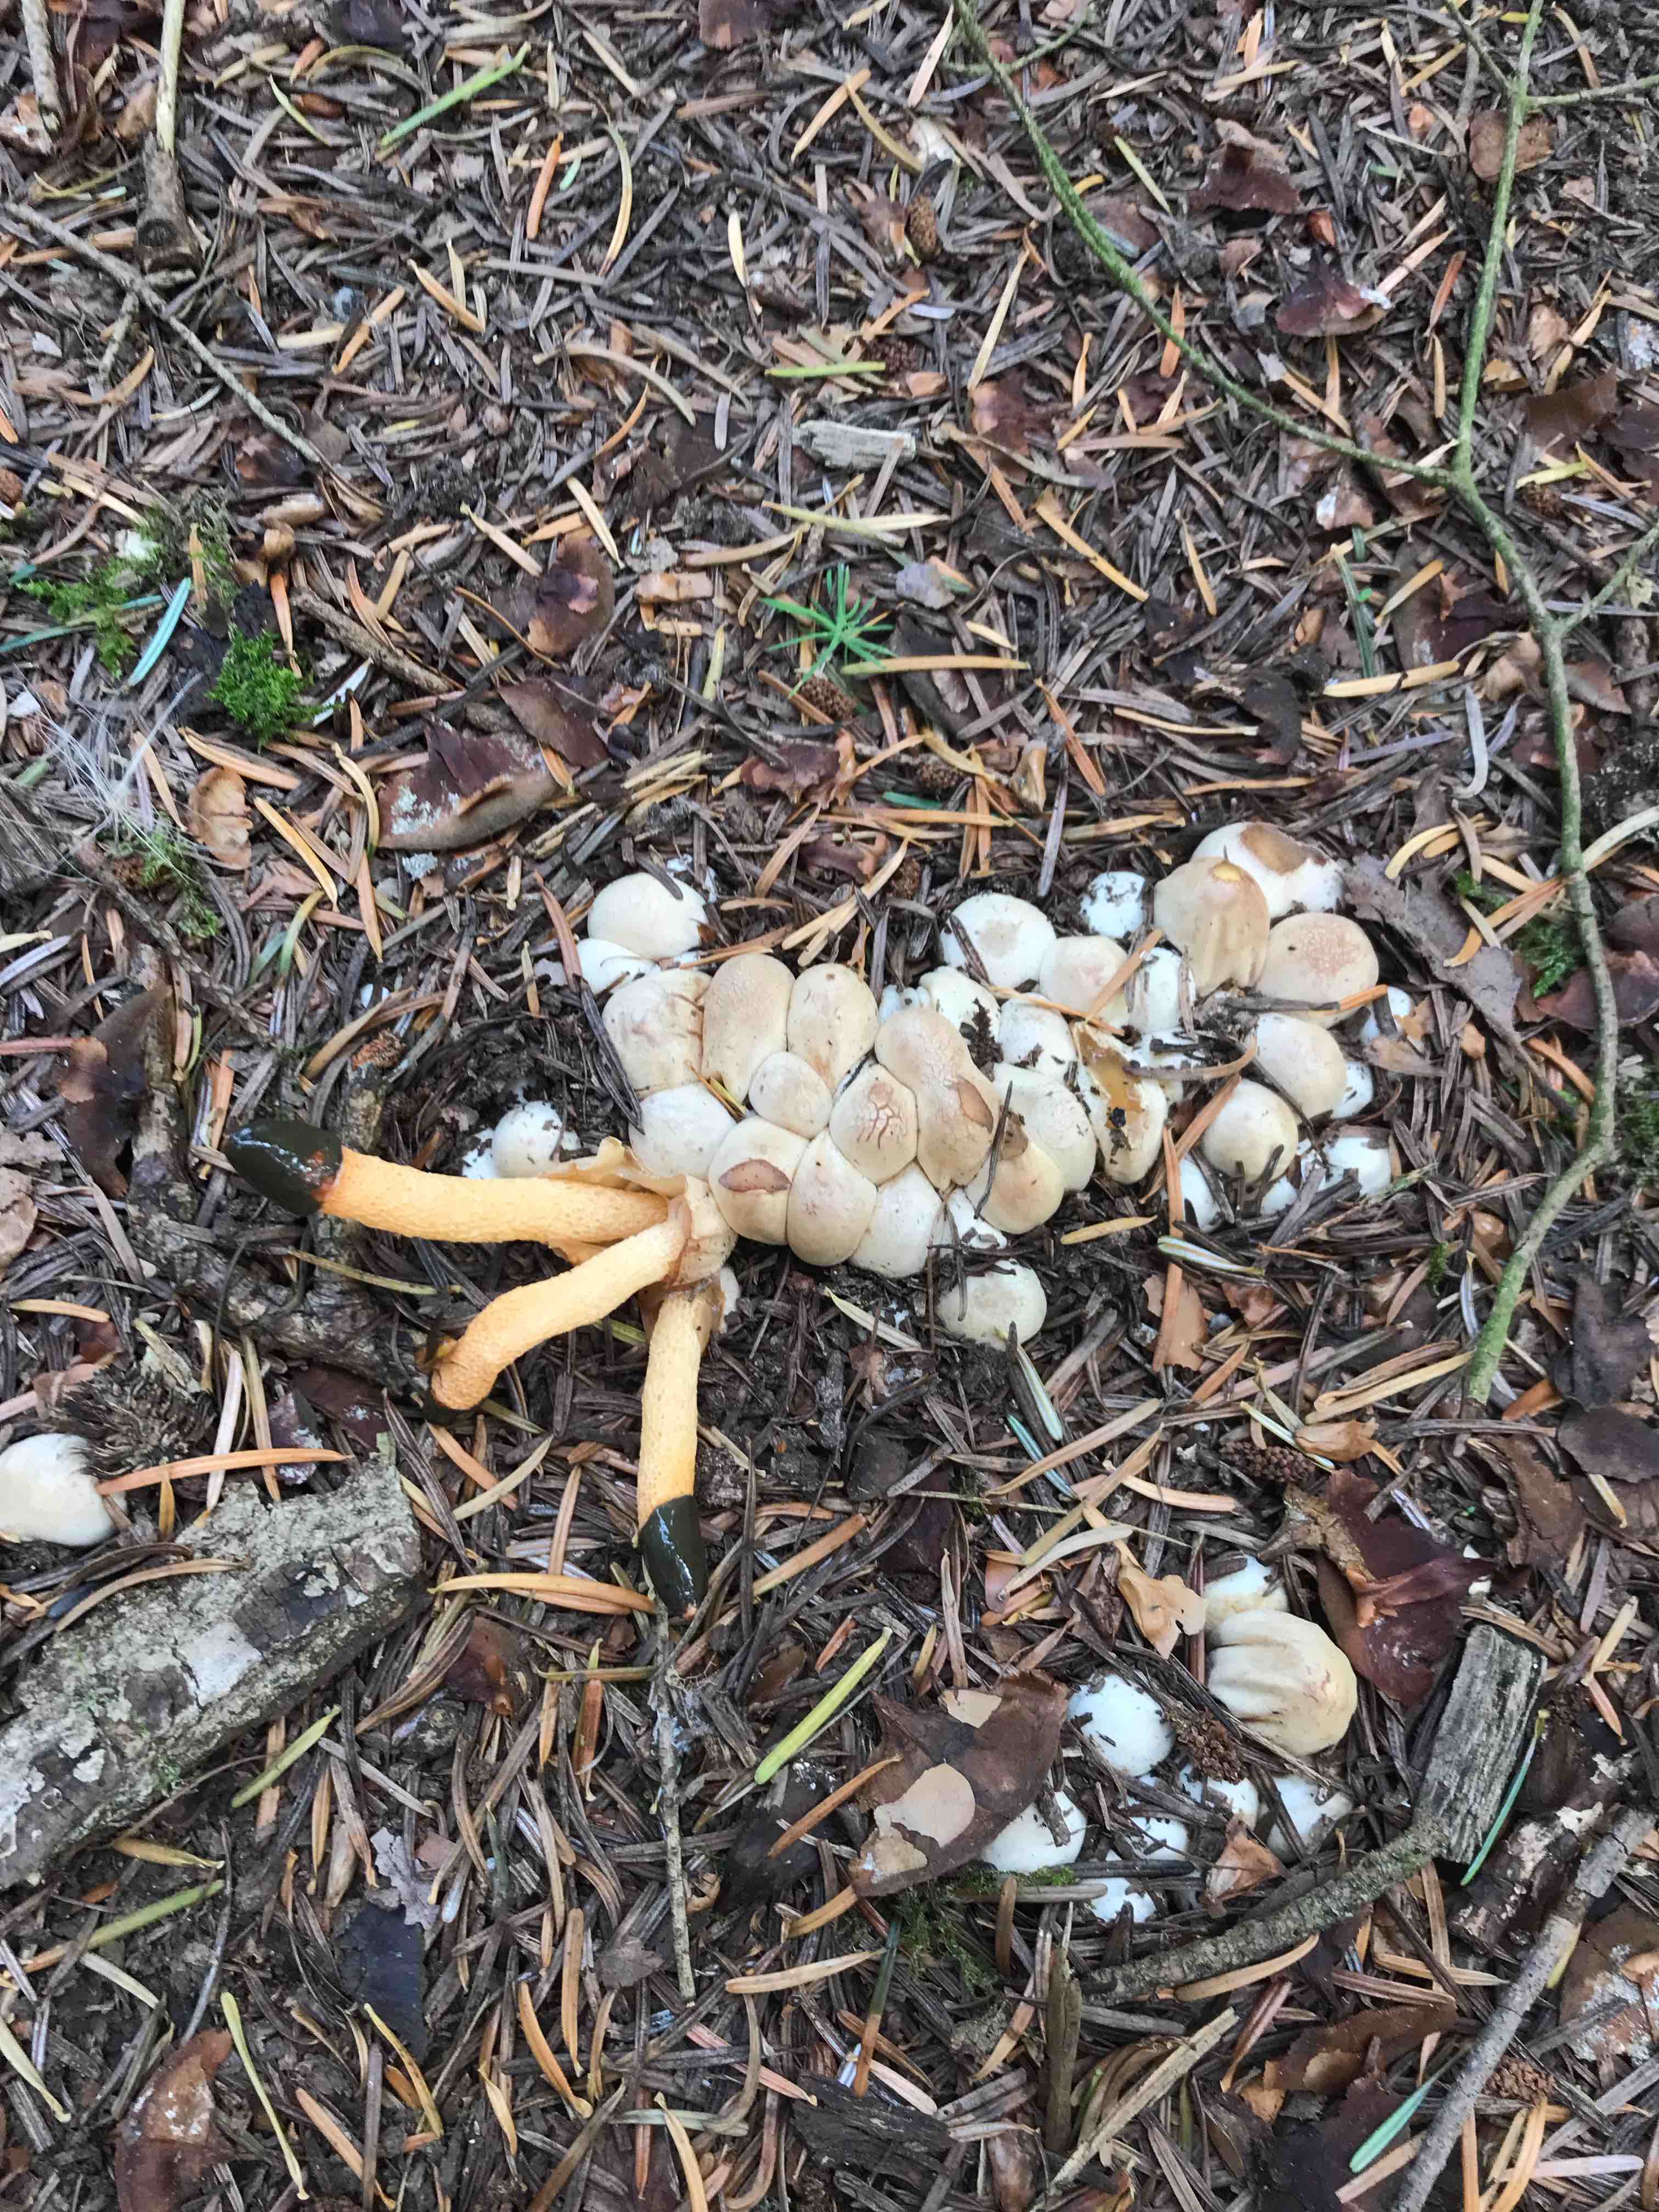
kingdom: Fungi
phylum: Basidiomycota
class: Agaricomycetes
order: Phallales
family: Phallaceae
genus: Mutinus
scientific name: Mutinus caninus
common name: hunde-stinksvamp
